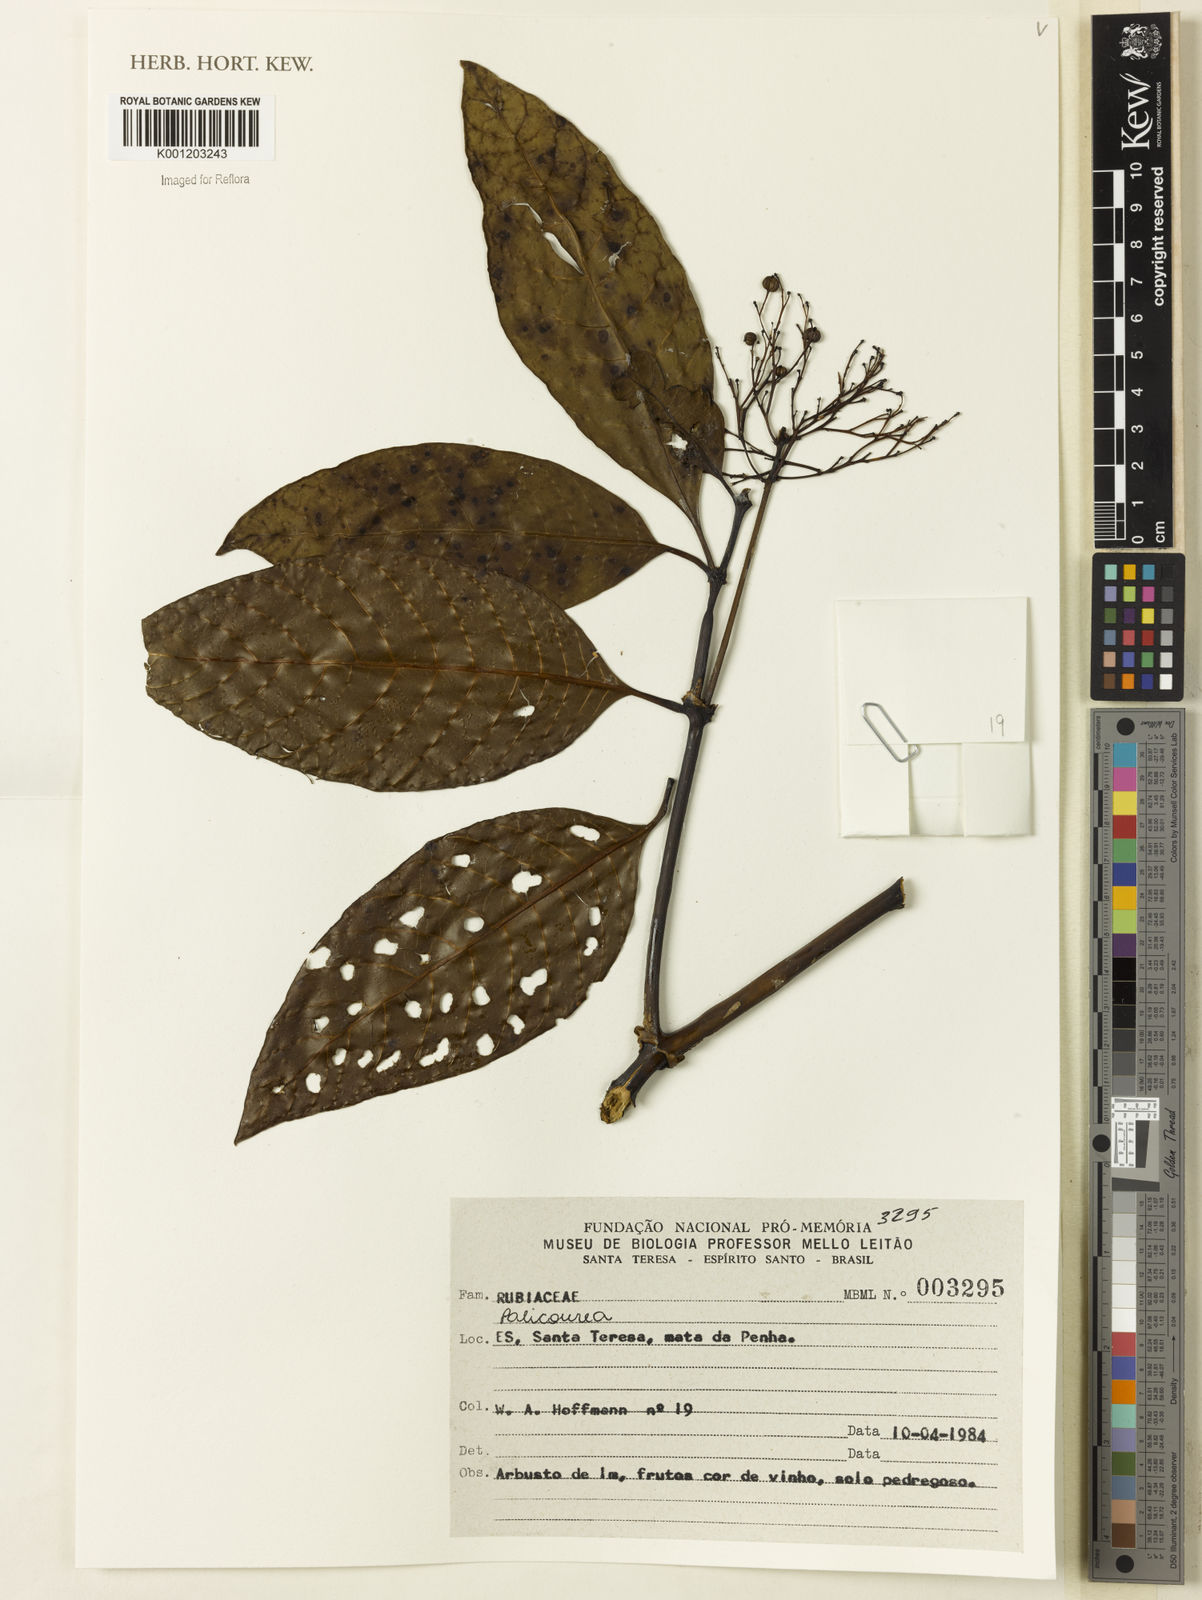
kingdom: Plantae
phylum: Tracheophyta
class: Magnoliopsida
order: Gentianales
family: Rubiaceae
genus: Palicourea
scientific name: Palicourea
